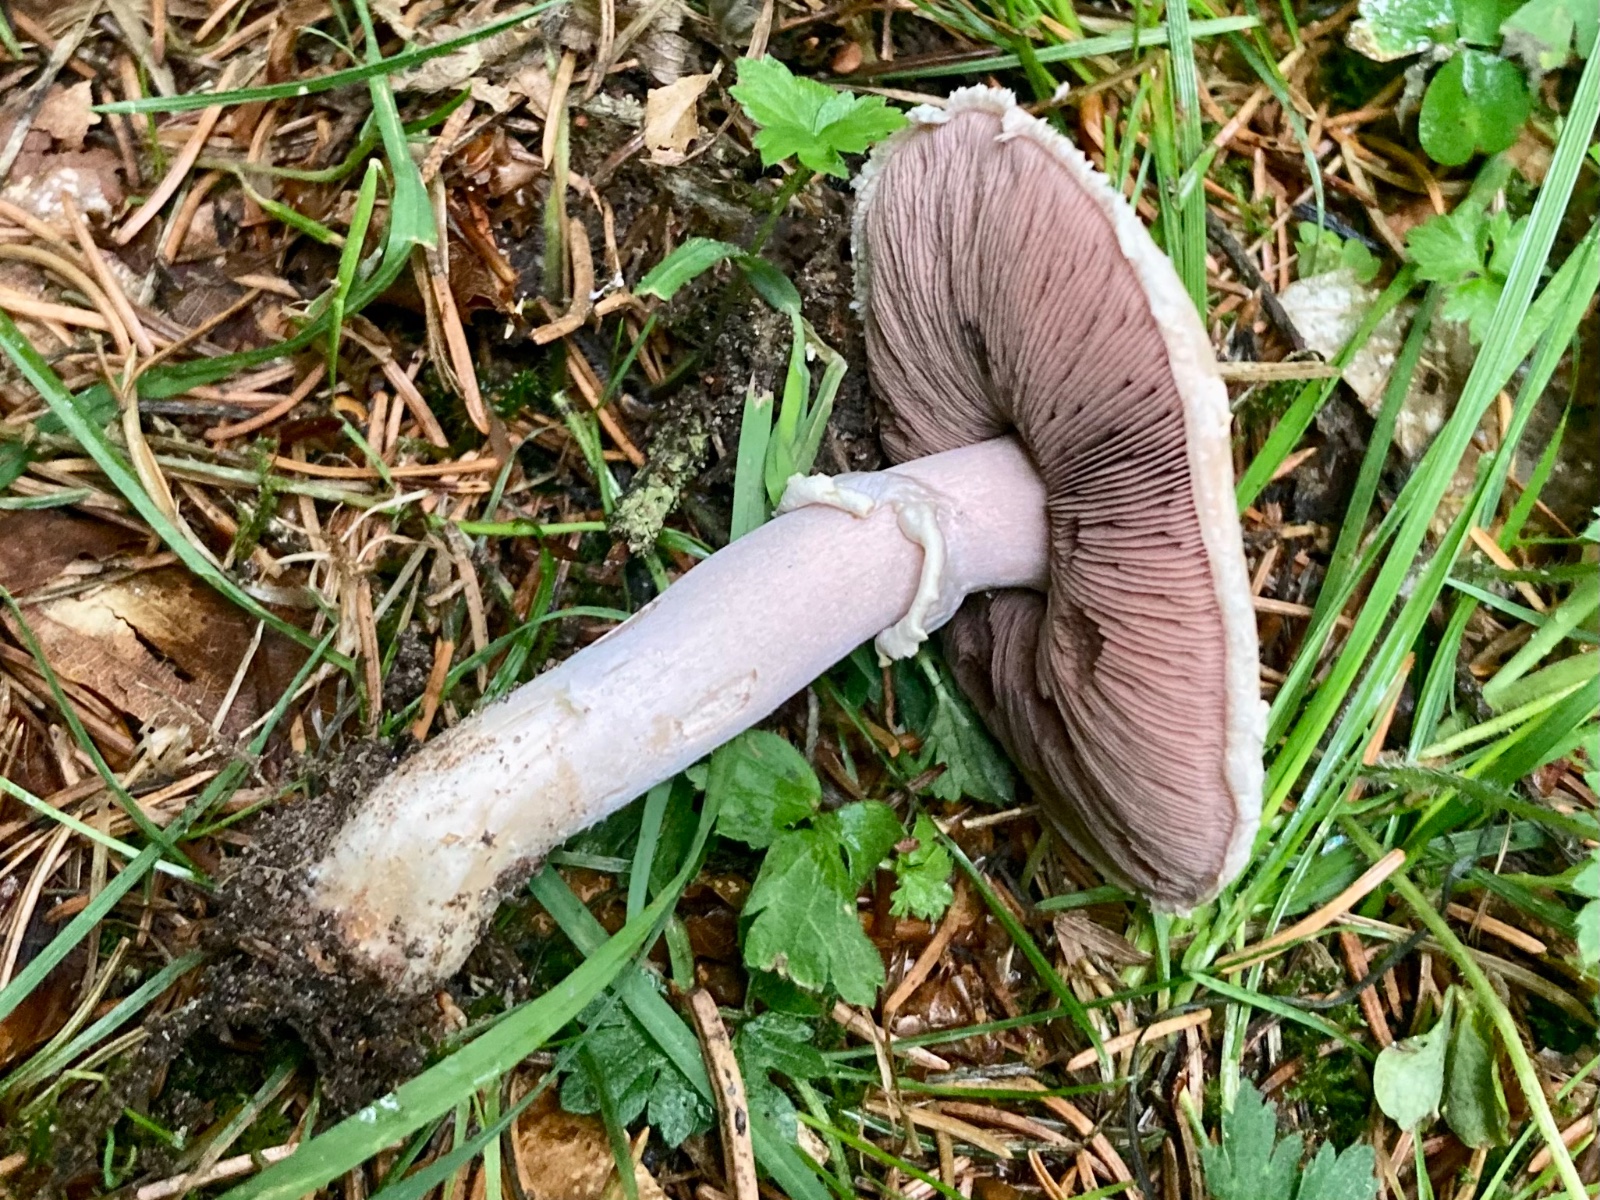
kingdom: Fungi
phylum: Basidiomycota
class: Agaricomycetes
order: Agaricales
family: Agaricaceae
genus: Agaricus
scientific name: Agaricus campestris
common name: mark-champignon
